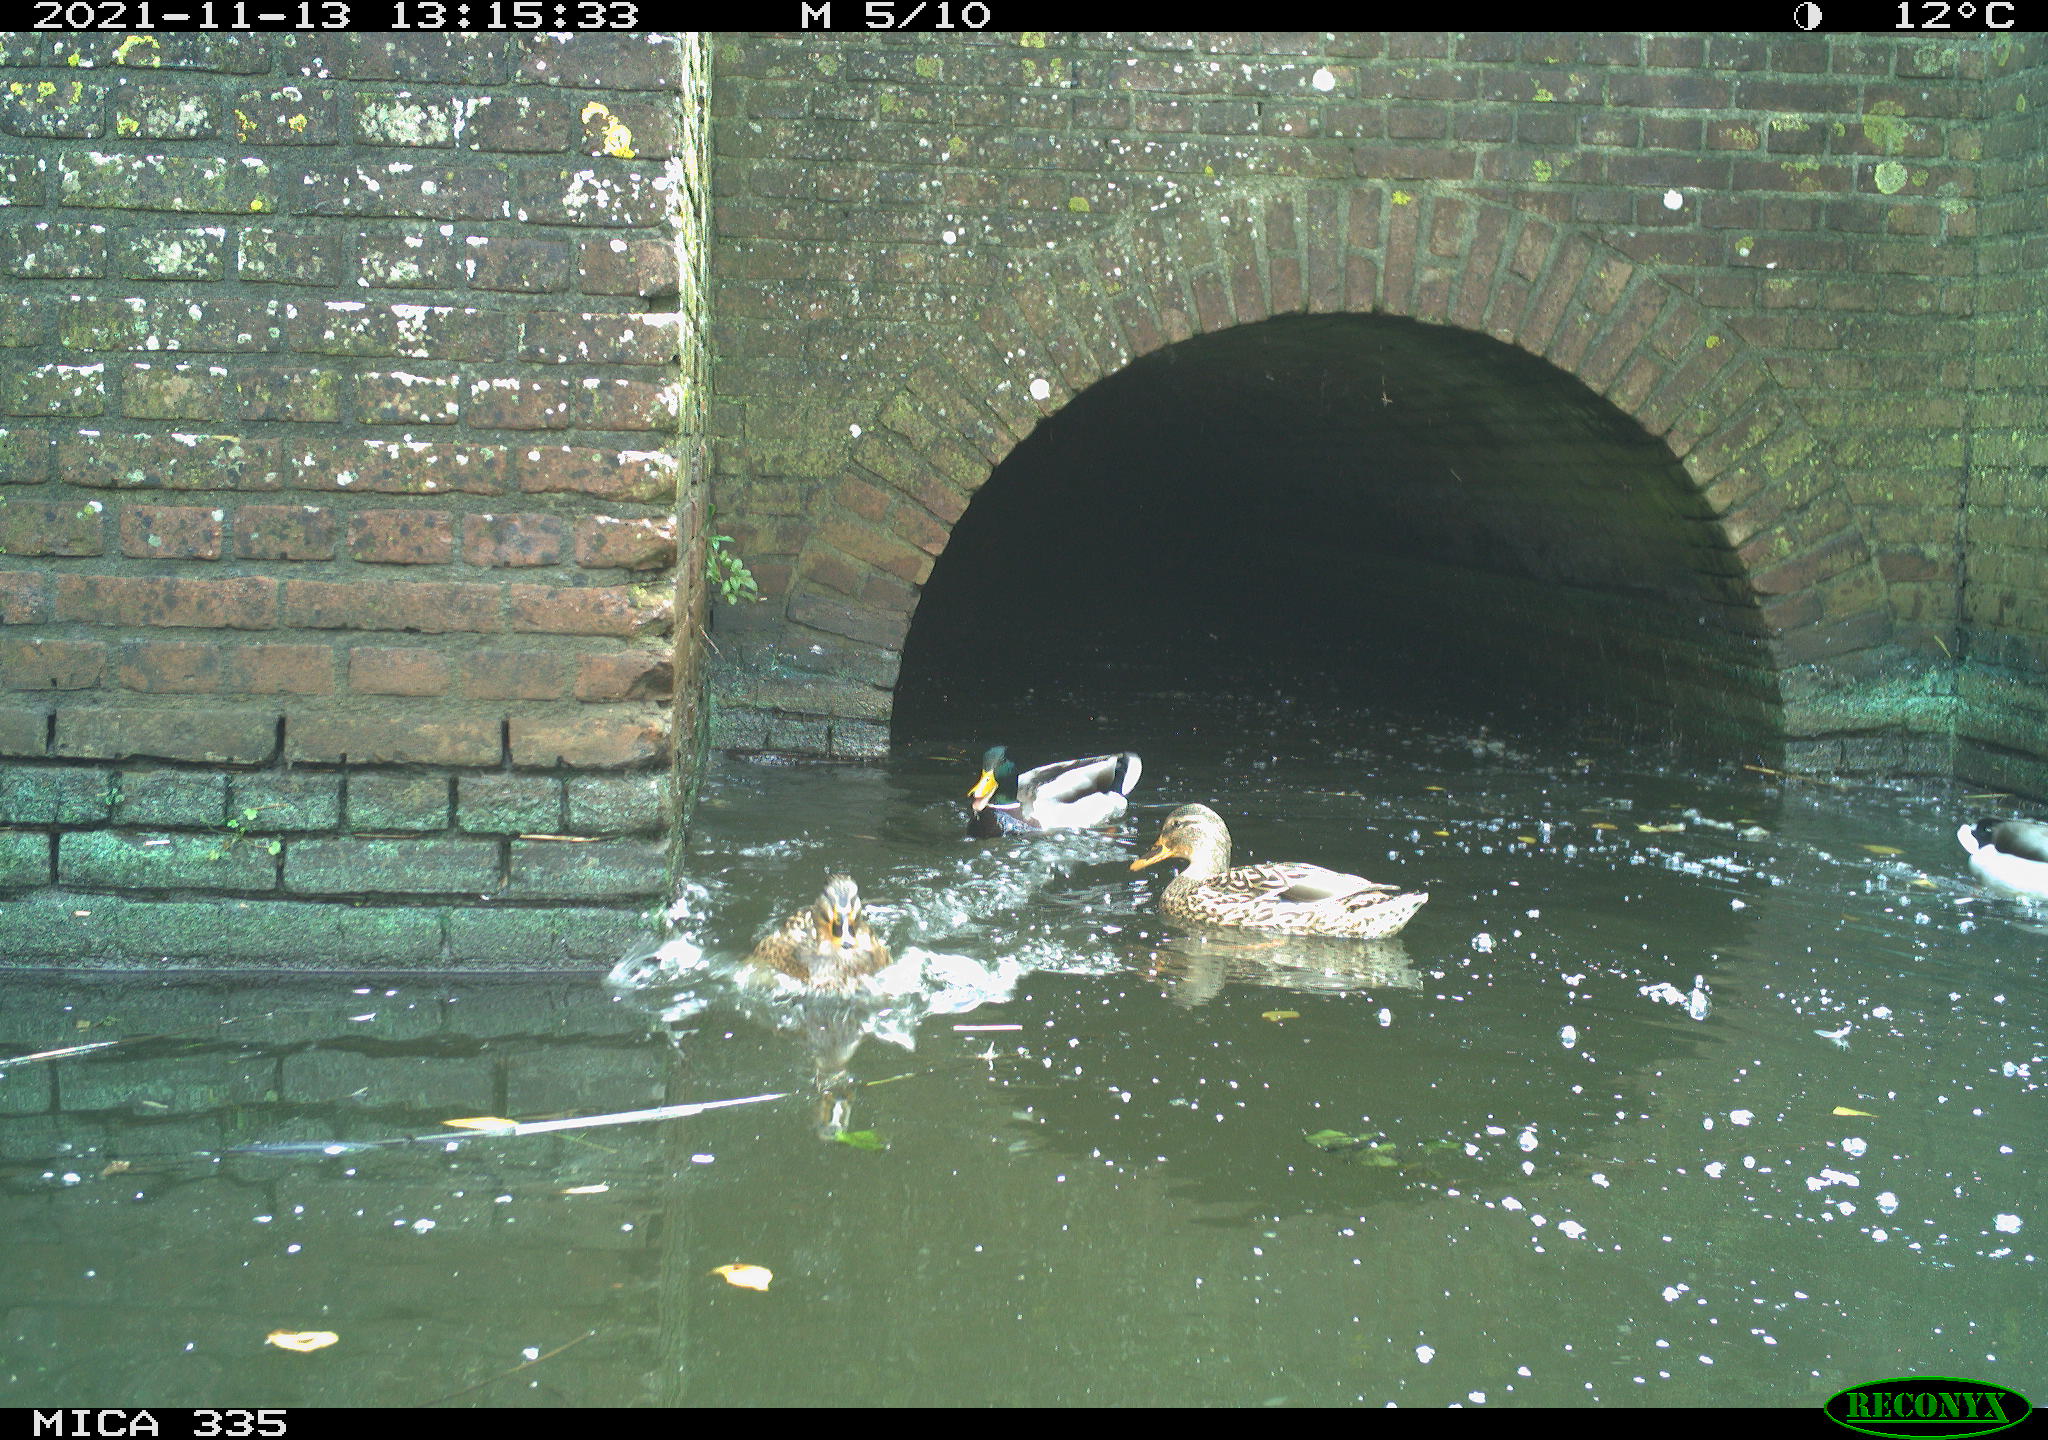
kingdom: Animalia
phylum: Chordata
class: Aves
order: Anseriformes
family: Anatidae
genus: Anas
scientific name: Anas platyrhynchos
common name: Mallard
